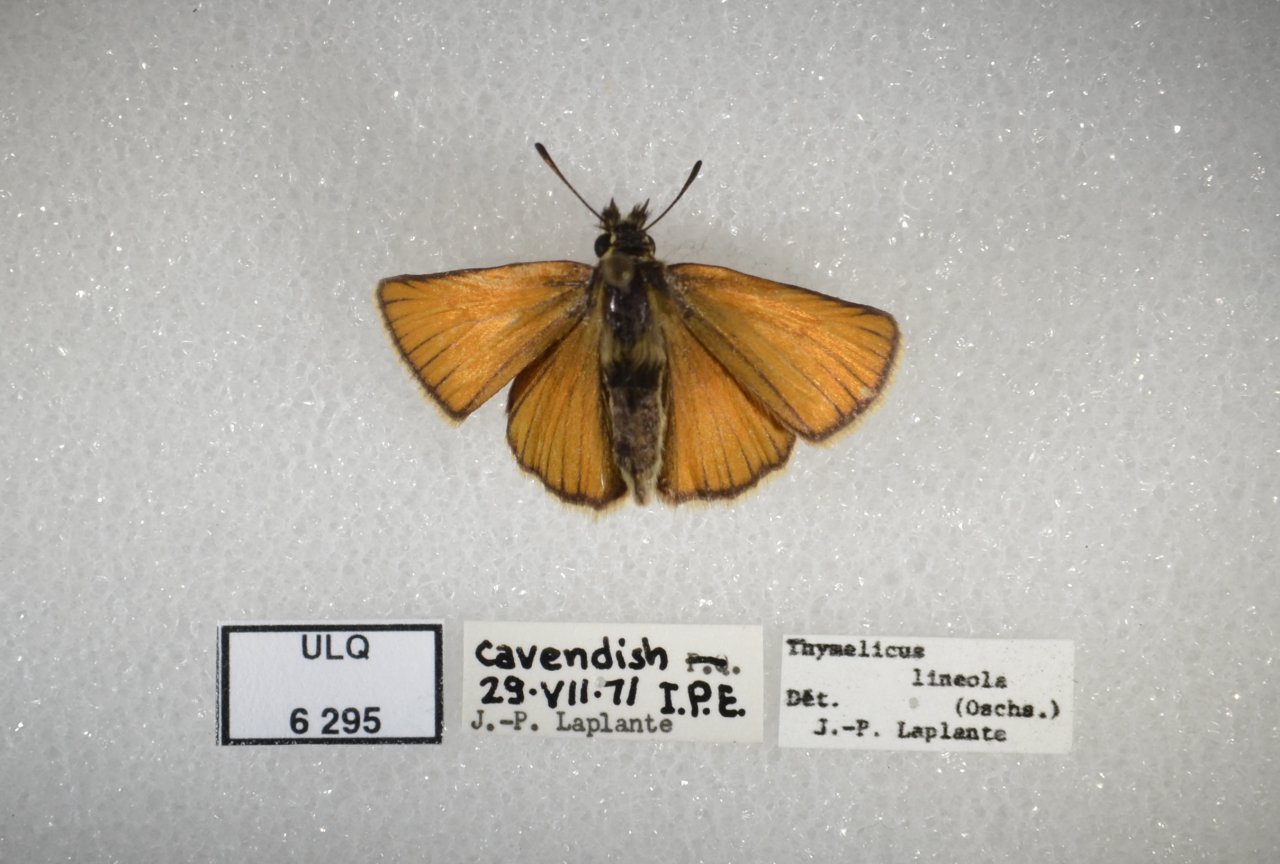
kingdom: Animalia
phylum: Arthropoda
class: Insecta
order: Lepidoptera
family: Hesperiidae
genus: Thymelicus
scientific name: Thymelicus lineola
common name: European Skipper
